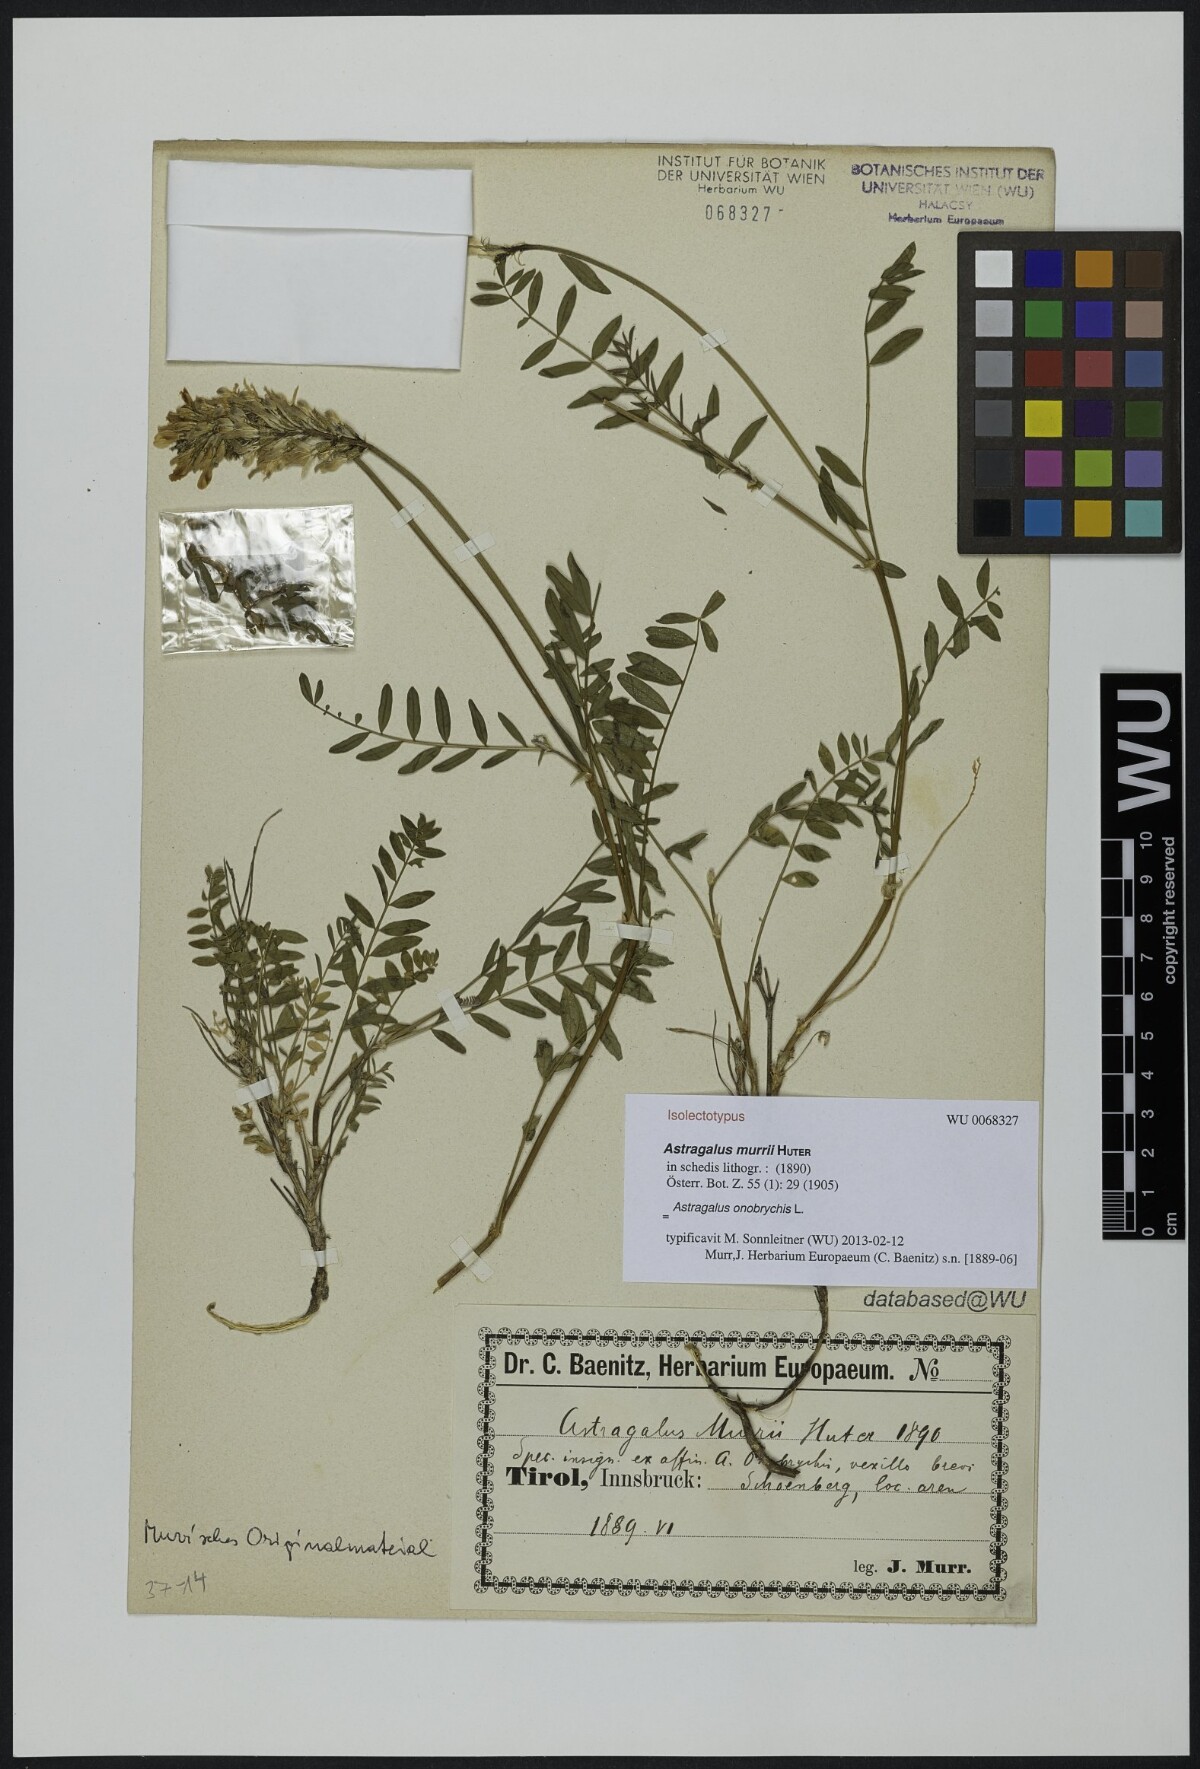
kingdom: Plantae
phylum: Tracheophyta
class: Magnoliopsida
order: Fabales
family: Fabaceae
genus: Astragalus
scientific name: Astragalus leontinus
